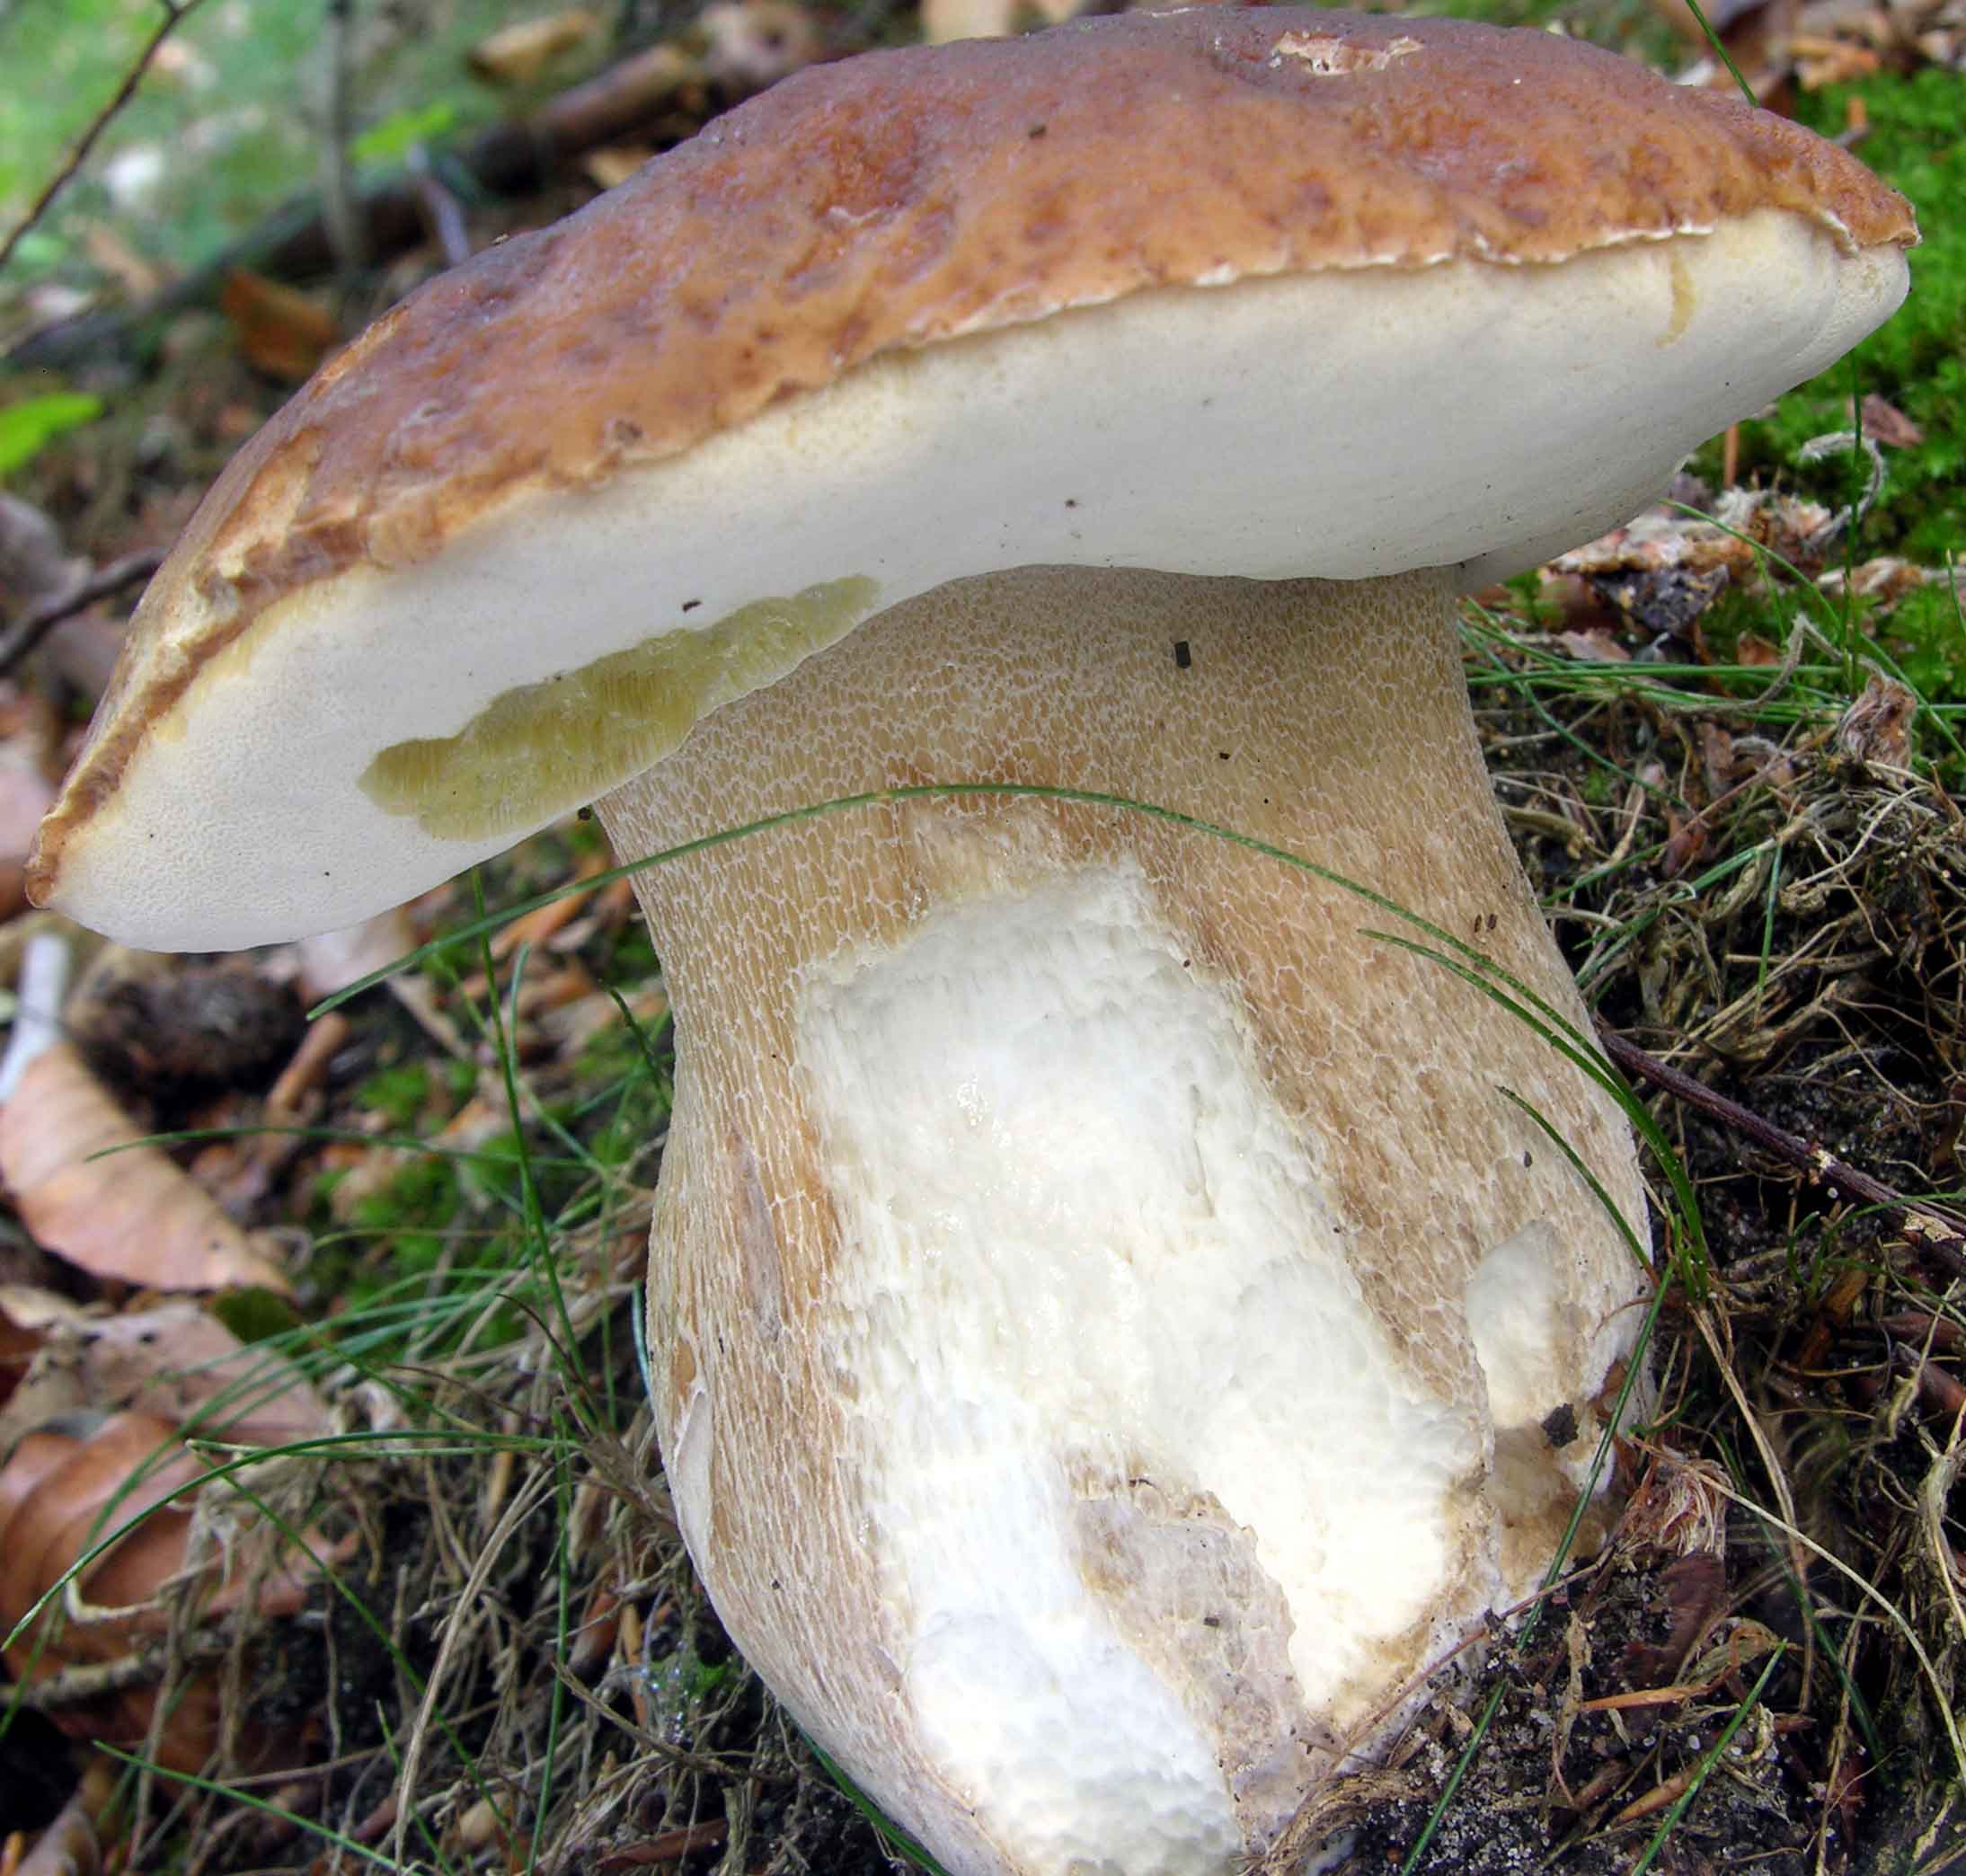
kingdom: Fungi
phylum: Basidiomycota
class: Agaricomycetes
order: Boletales
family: Boletaceae
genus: Boletus
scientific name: Boletus edulis
